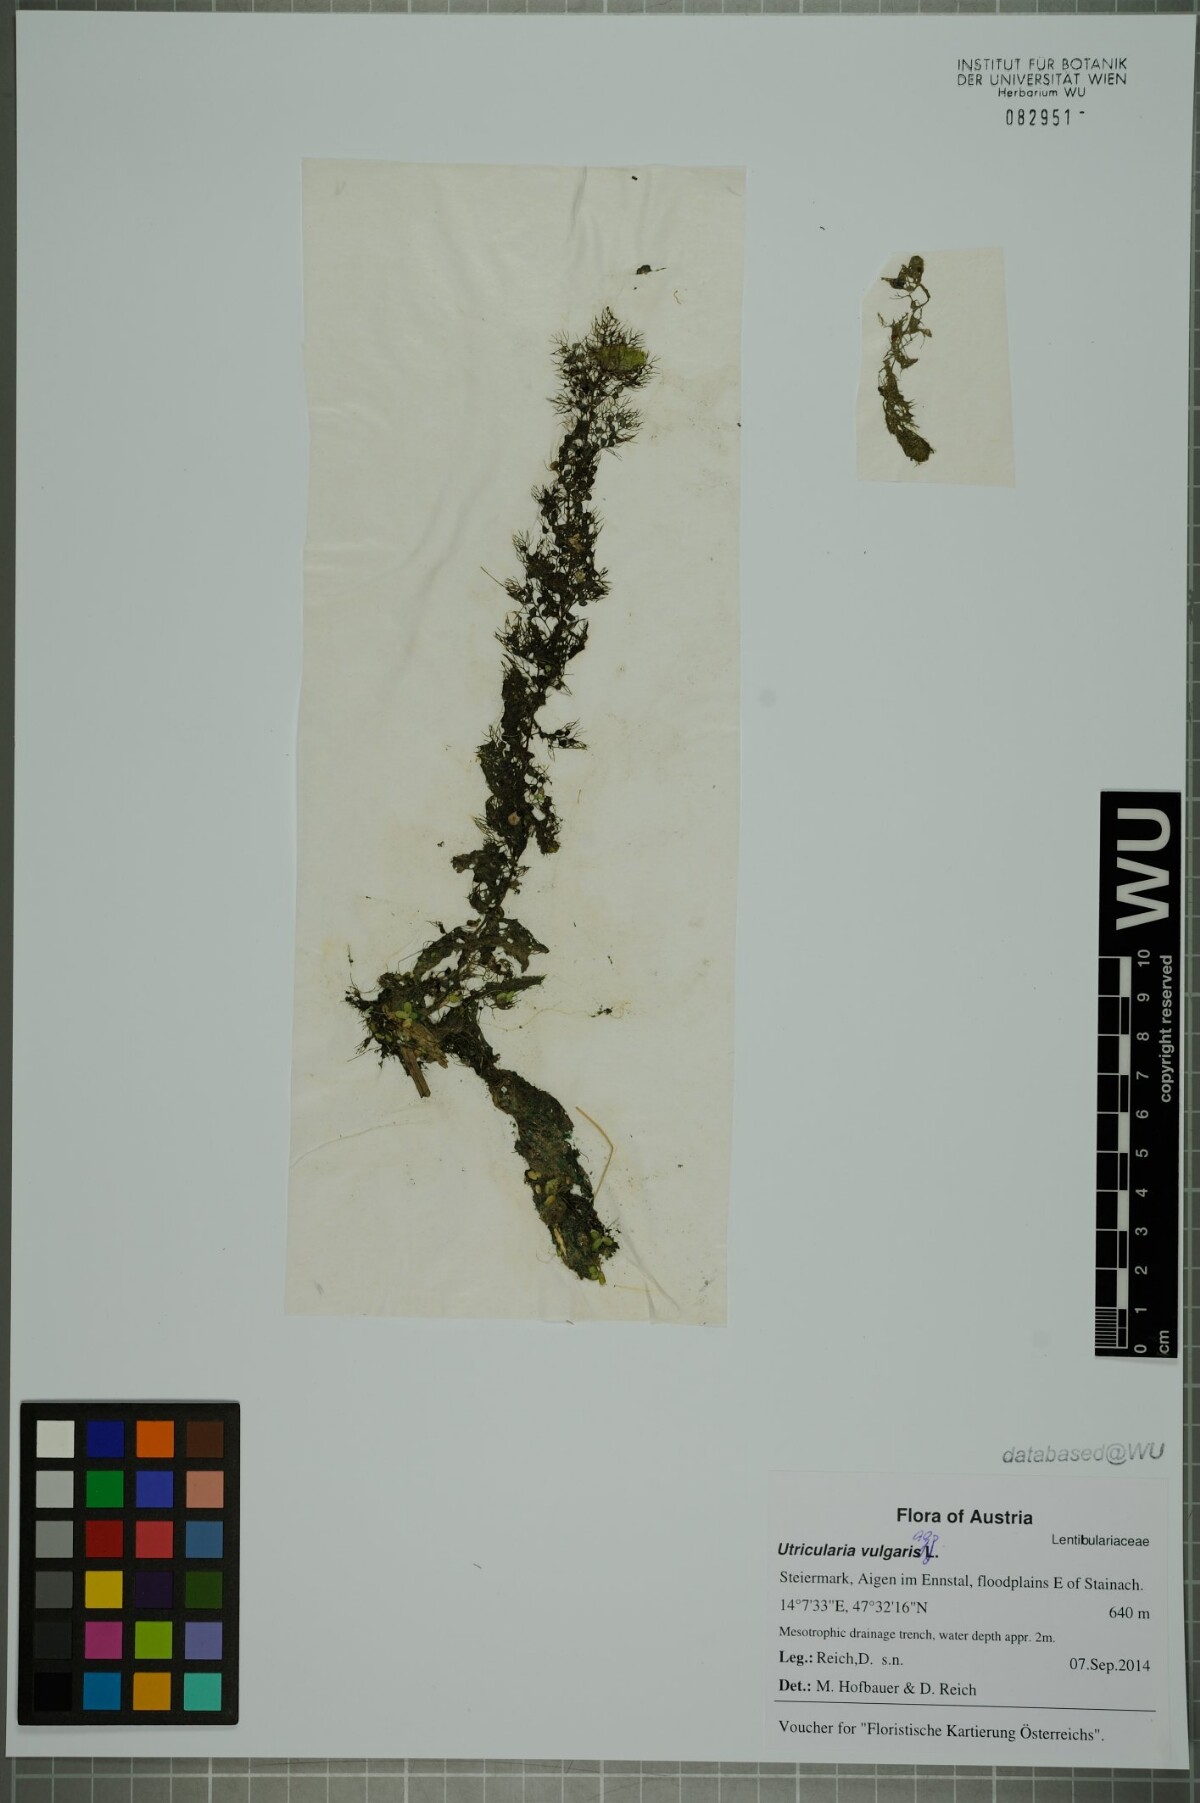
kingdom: Plantae
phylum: Tracheophyta
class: Magnoliopsida
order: Lamiales
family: Lentibulariaceae
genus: Utricularia
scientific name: Utricularia vulgaris
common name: Greater bladderwort
